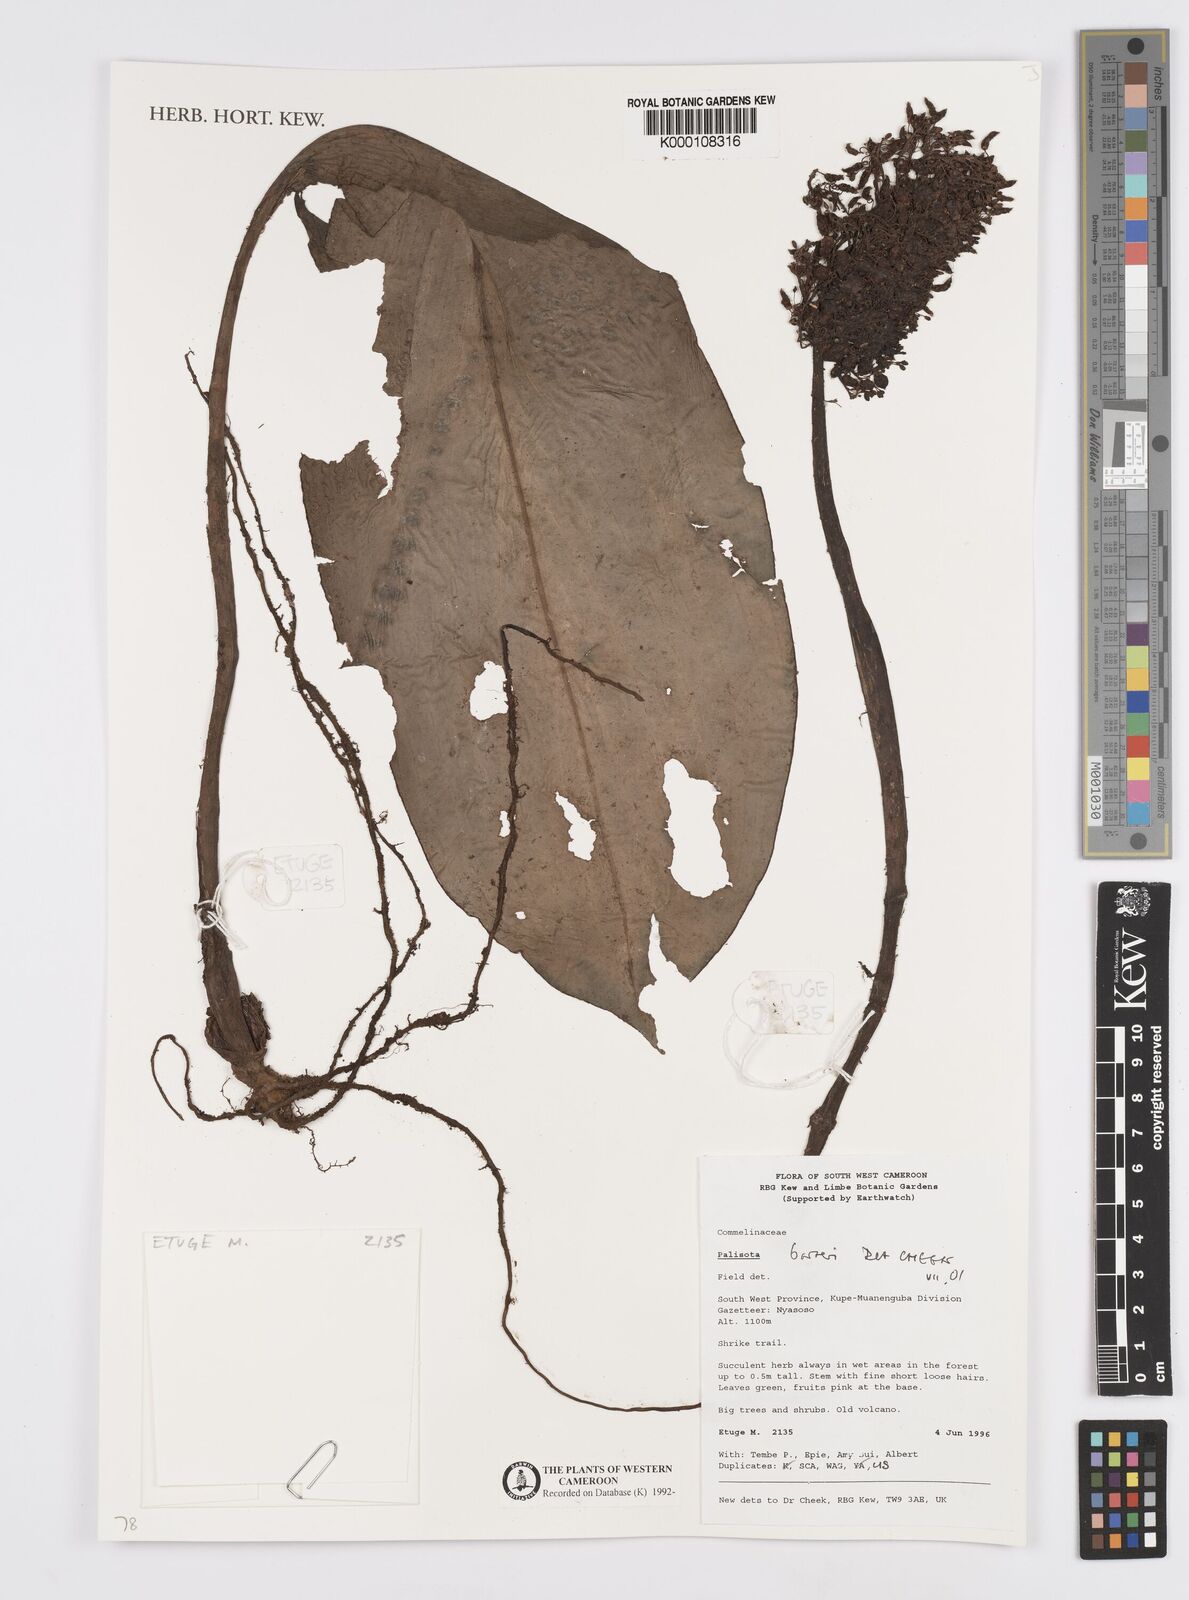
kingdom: Plantae
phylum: Tracheophyta
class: Liliopsida
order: Commelinales
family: Commelinaceae
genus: Palisota
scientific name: Palisota barteri
